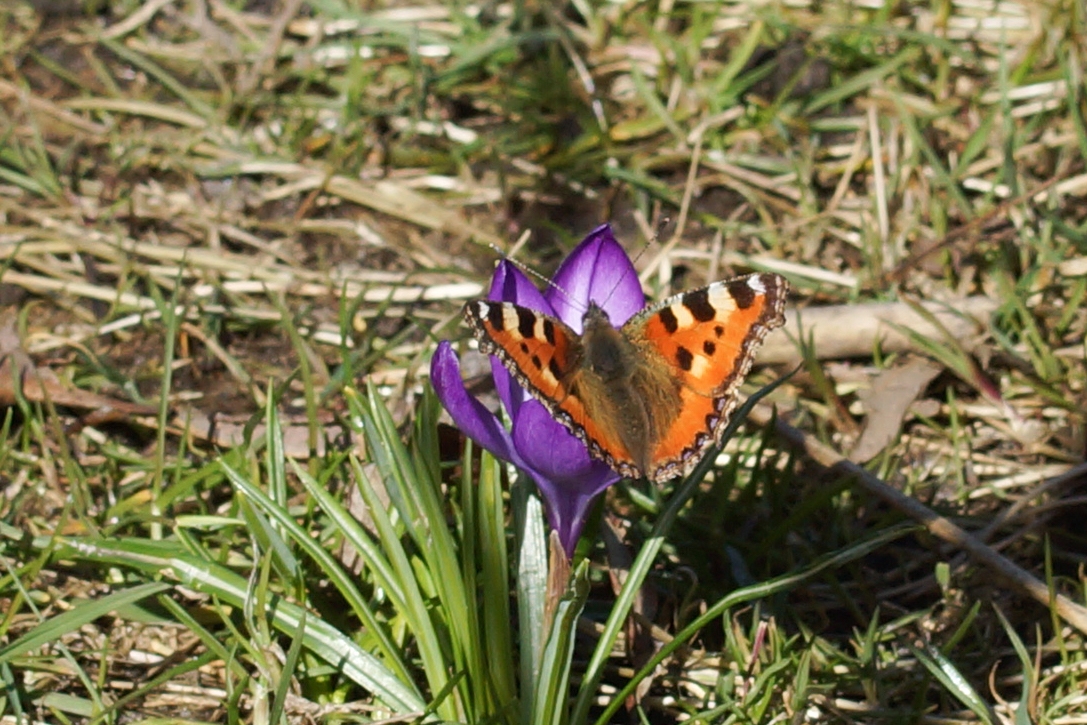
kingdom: Animalia
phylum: Arthropoda
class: Insecta
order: Lepidoptera
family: Nymphalidae
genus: Aglais
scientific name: Aglais urticae
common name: Nældens takvinge
